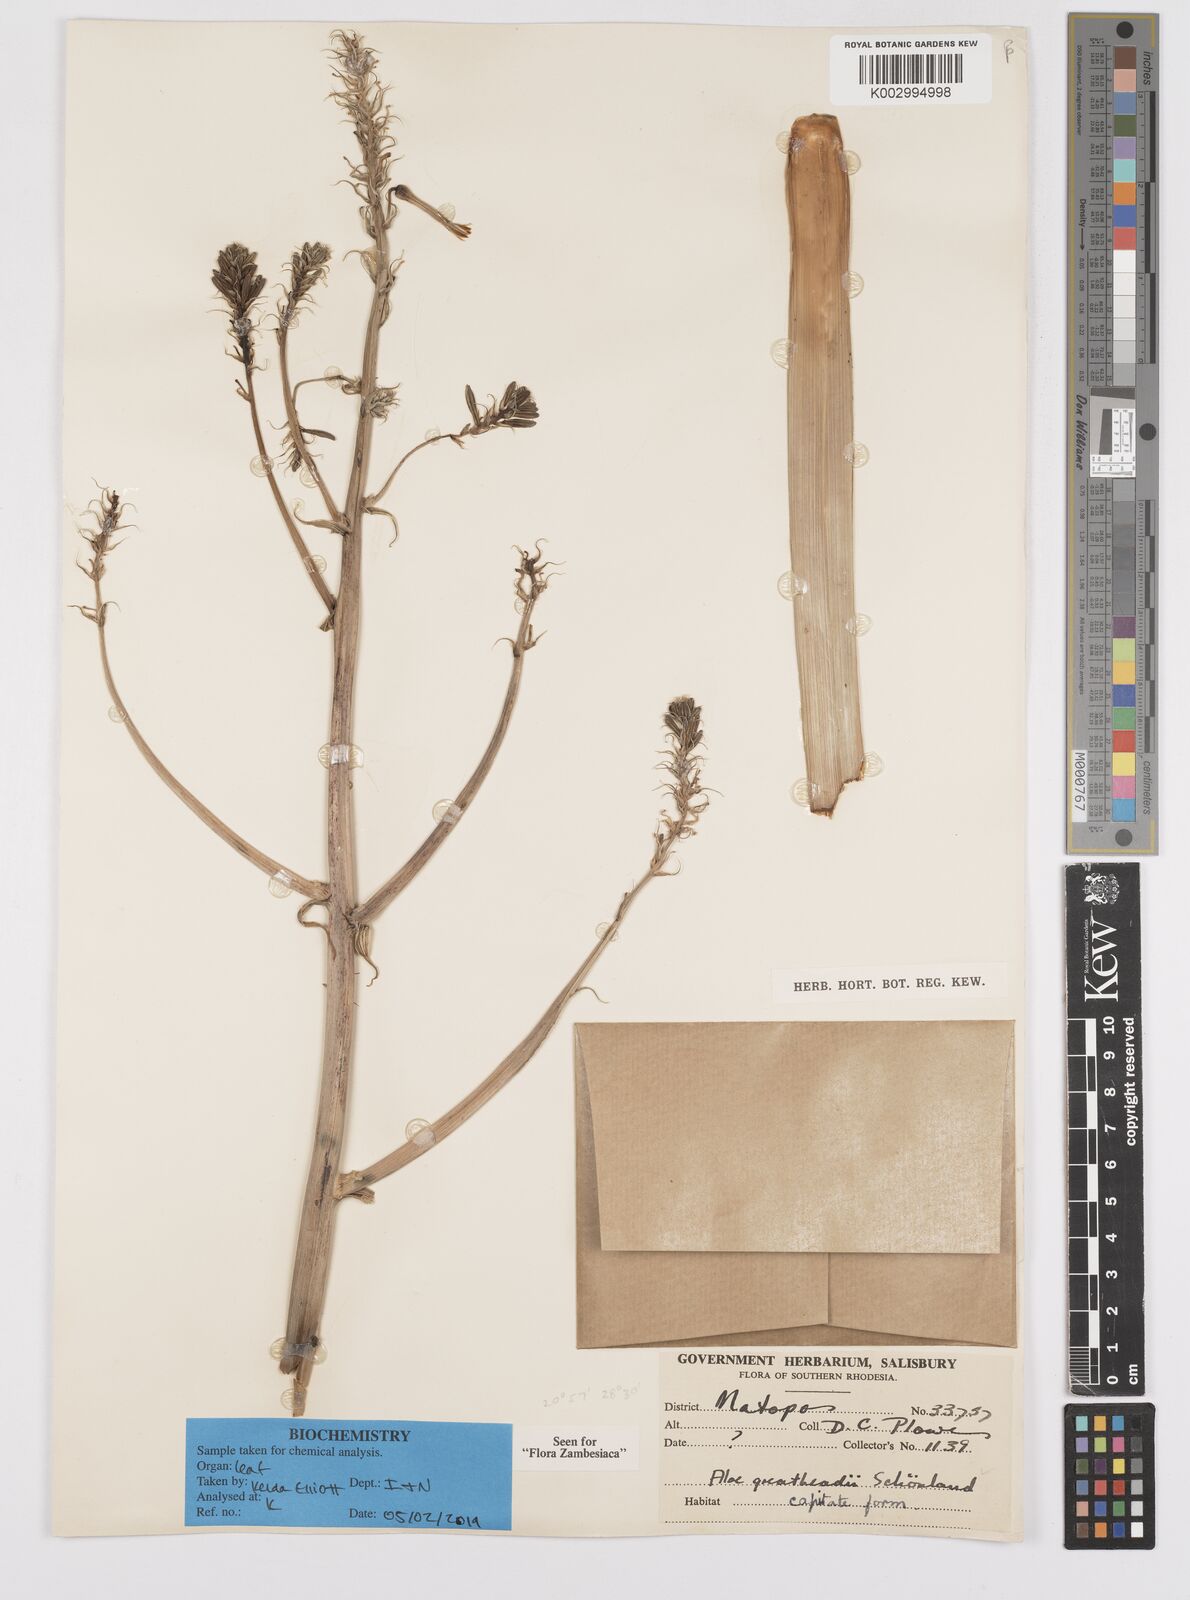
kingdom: Plantae
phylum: Tracheophyta
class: Liliopsida
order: Asparagales
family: Asphodelaceae
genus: Aloe
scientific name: Aloe greatheadii
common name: Greathead's aloe
